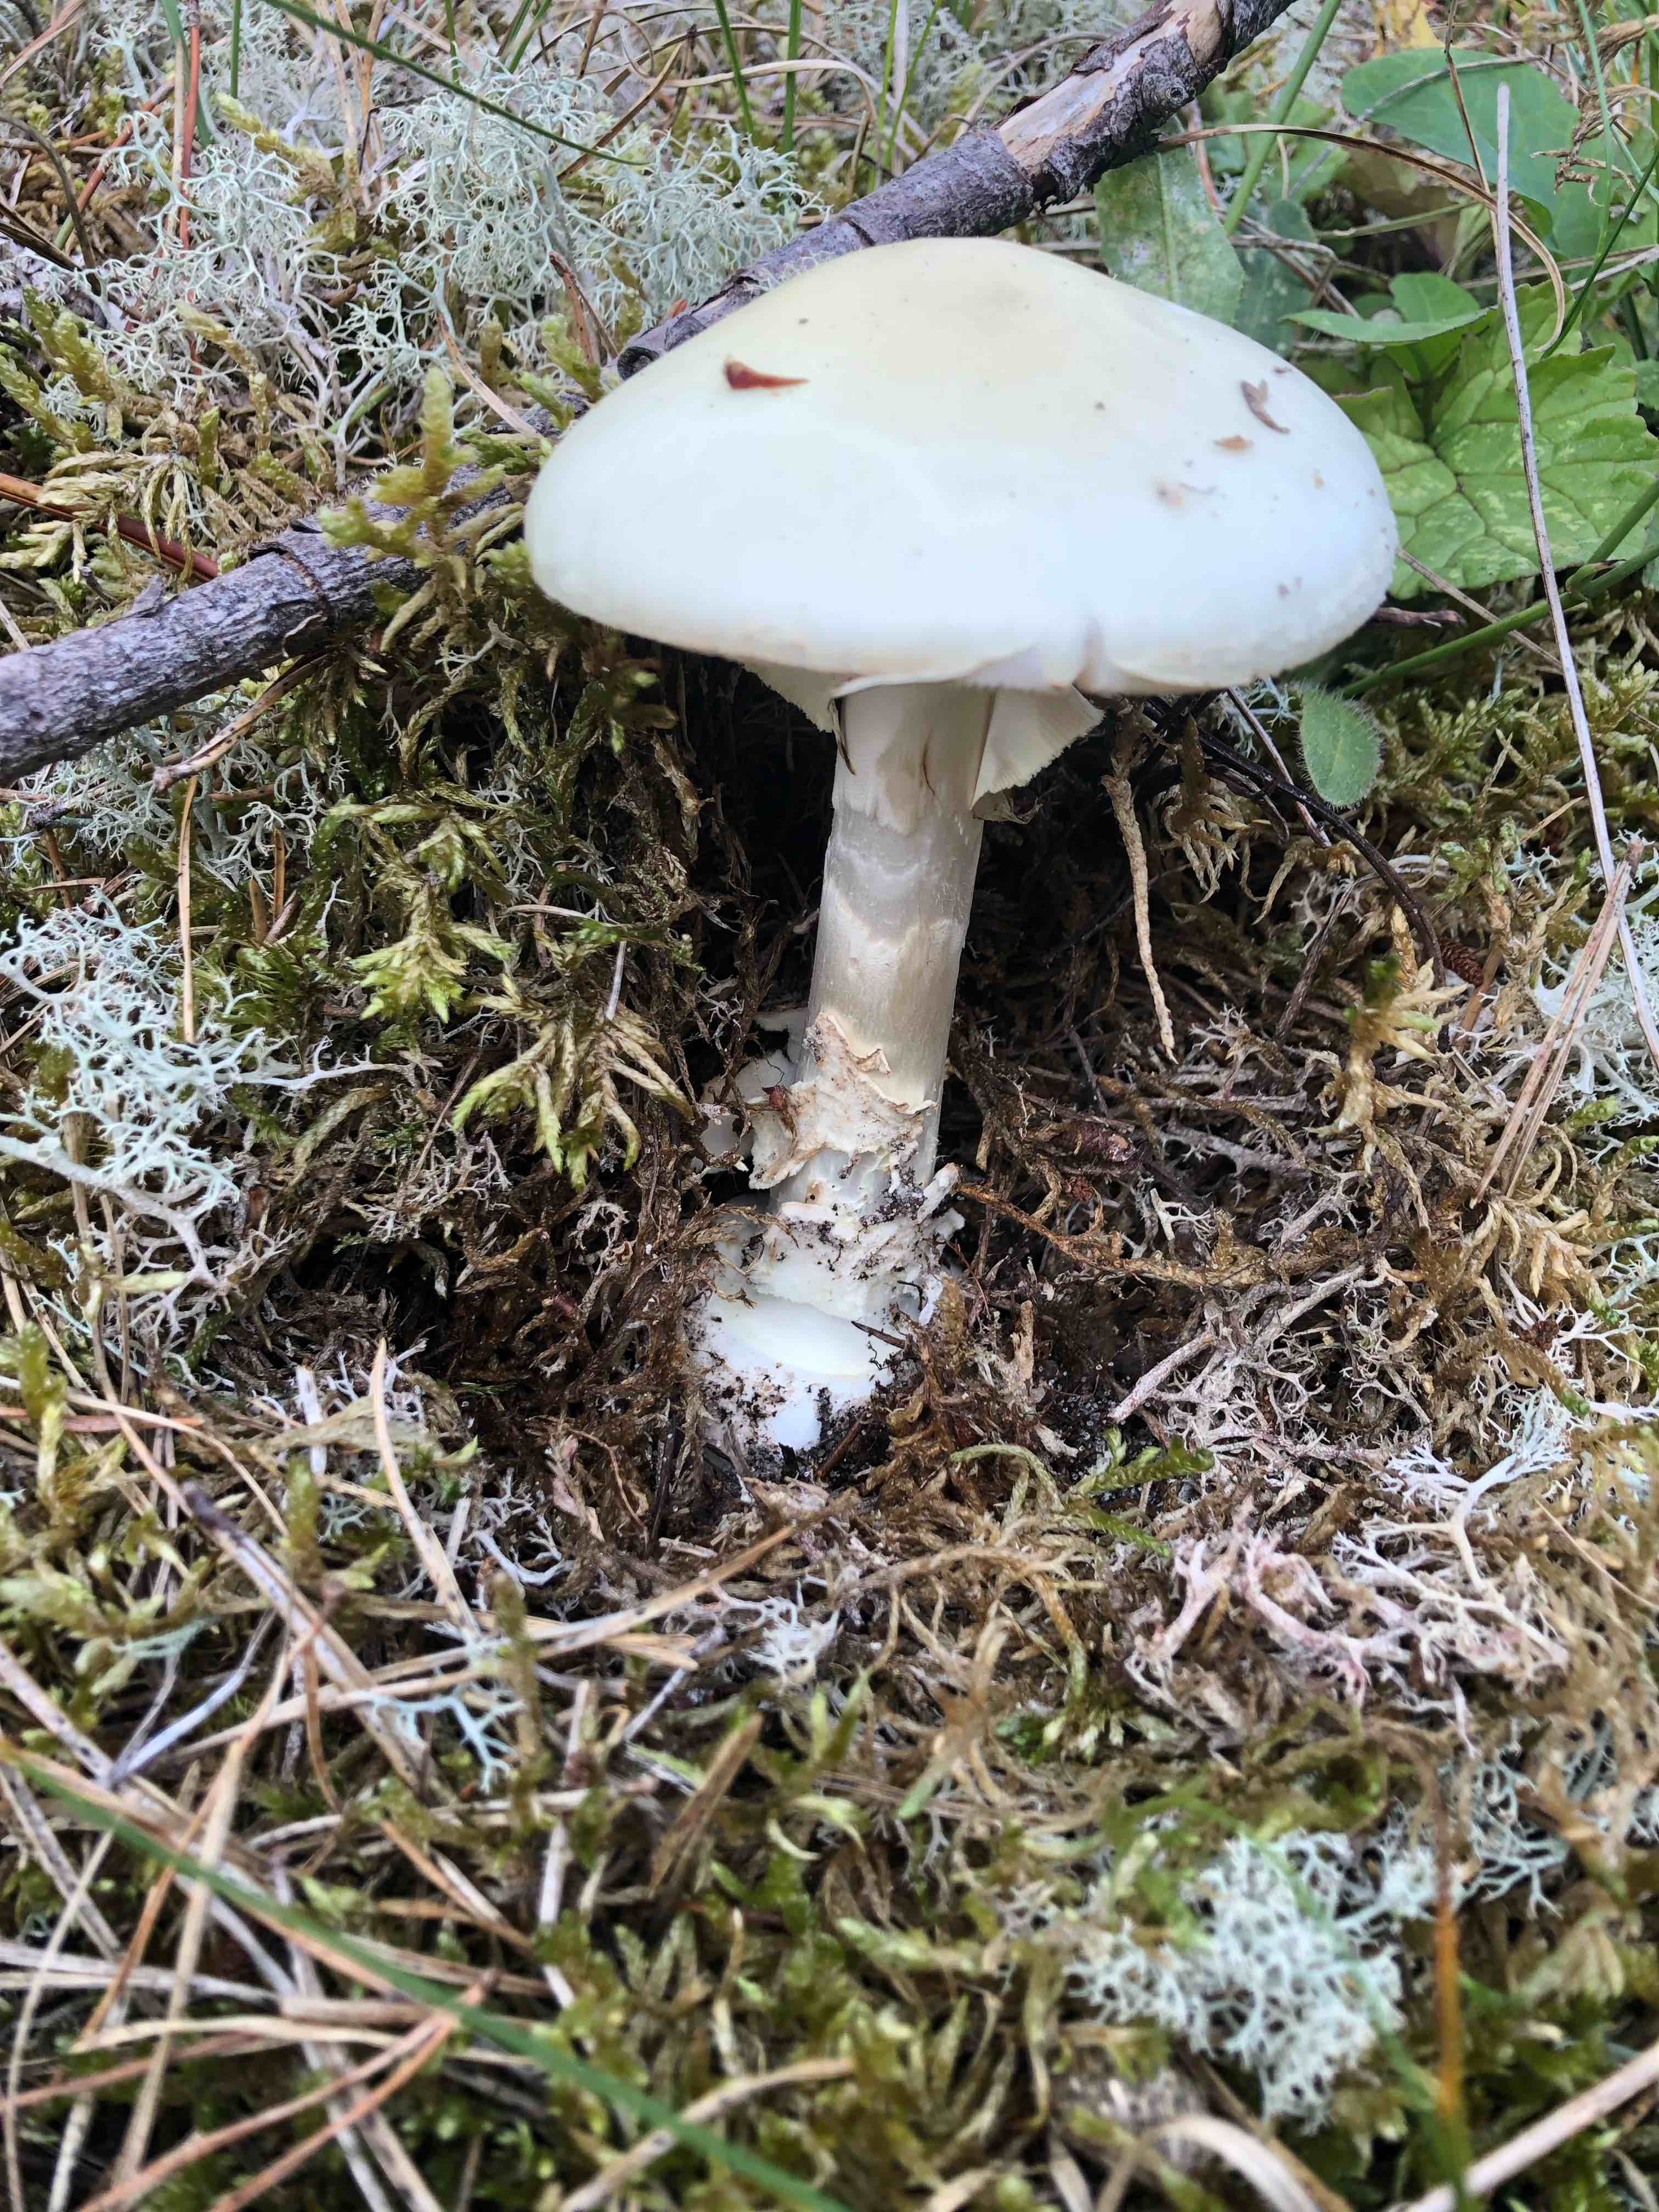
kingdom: Fungi
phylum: Basidiomycota
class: Agaricomycetes
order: Agaricales
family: Amanitaceae
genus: Amanita
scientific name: Amanita citrina
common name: kugleknoldet fluesvamp
